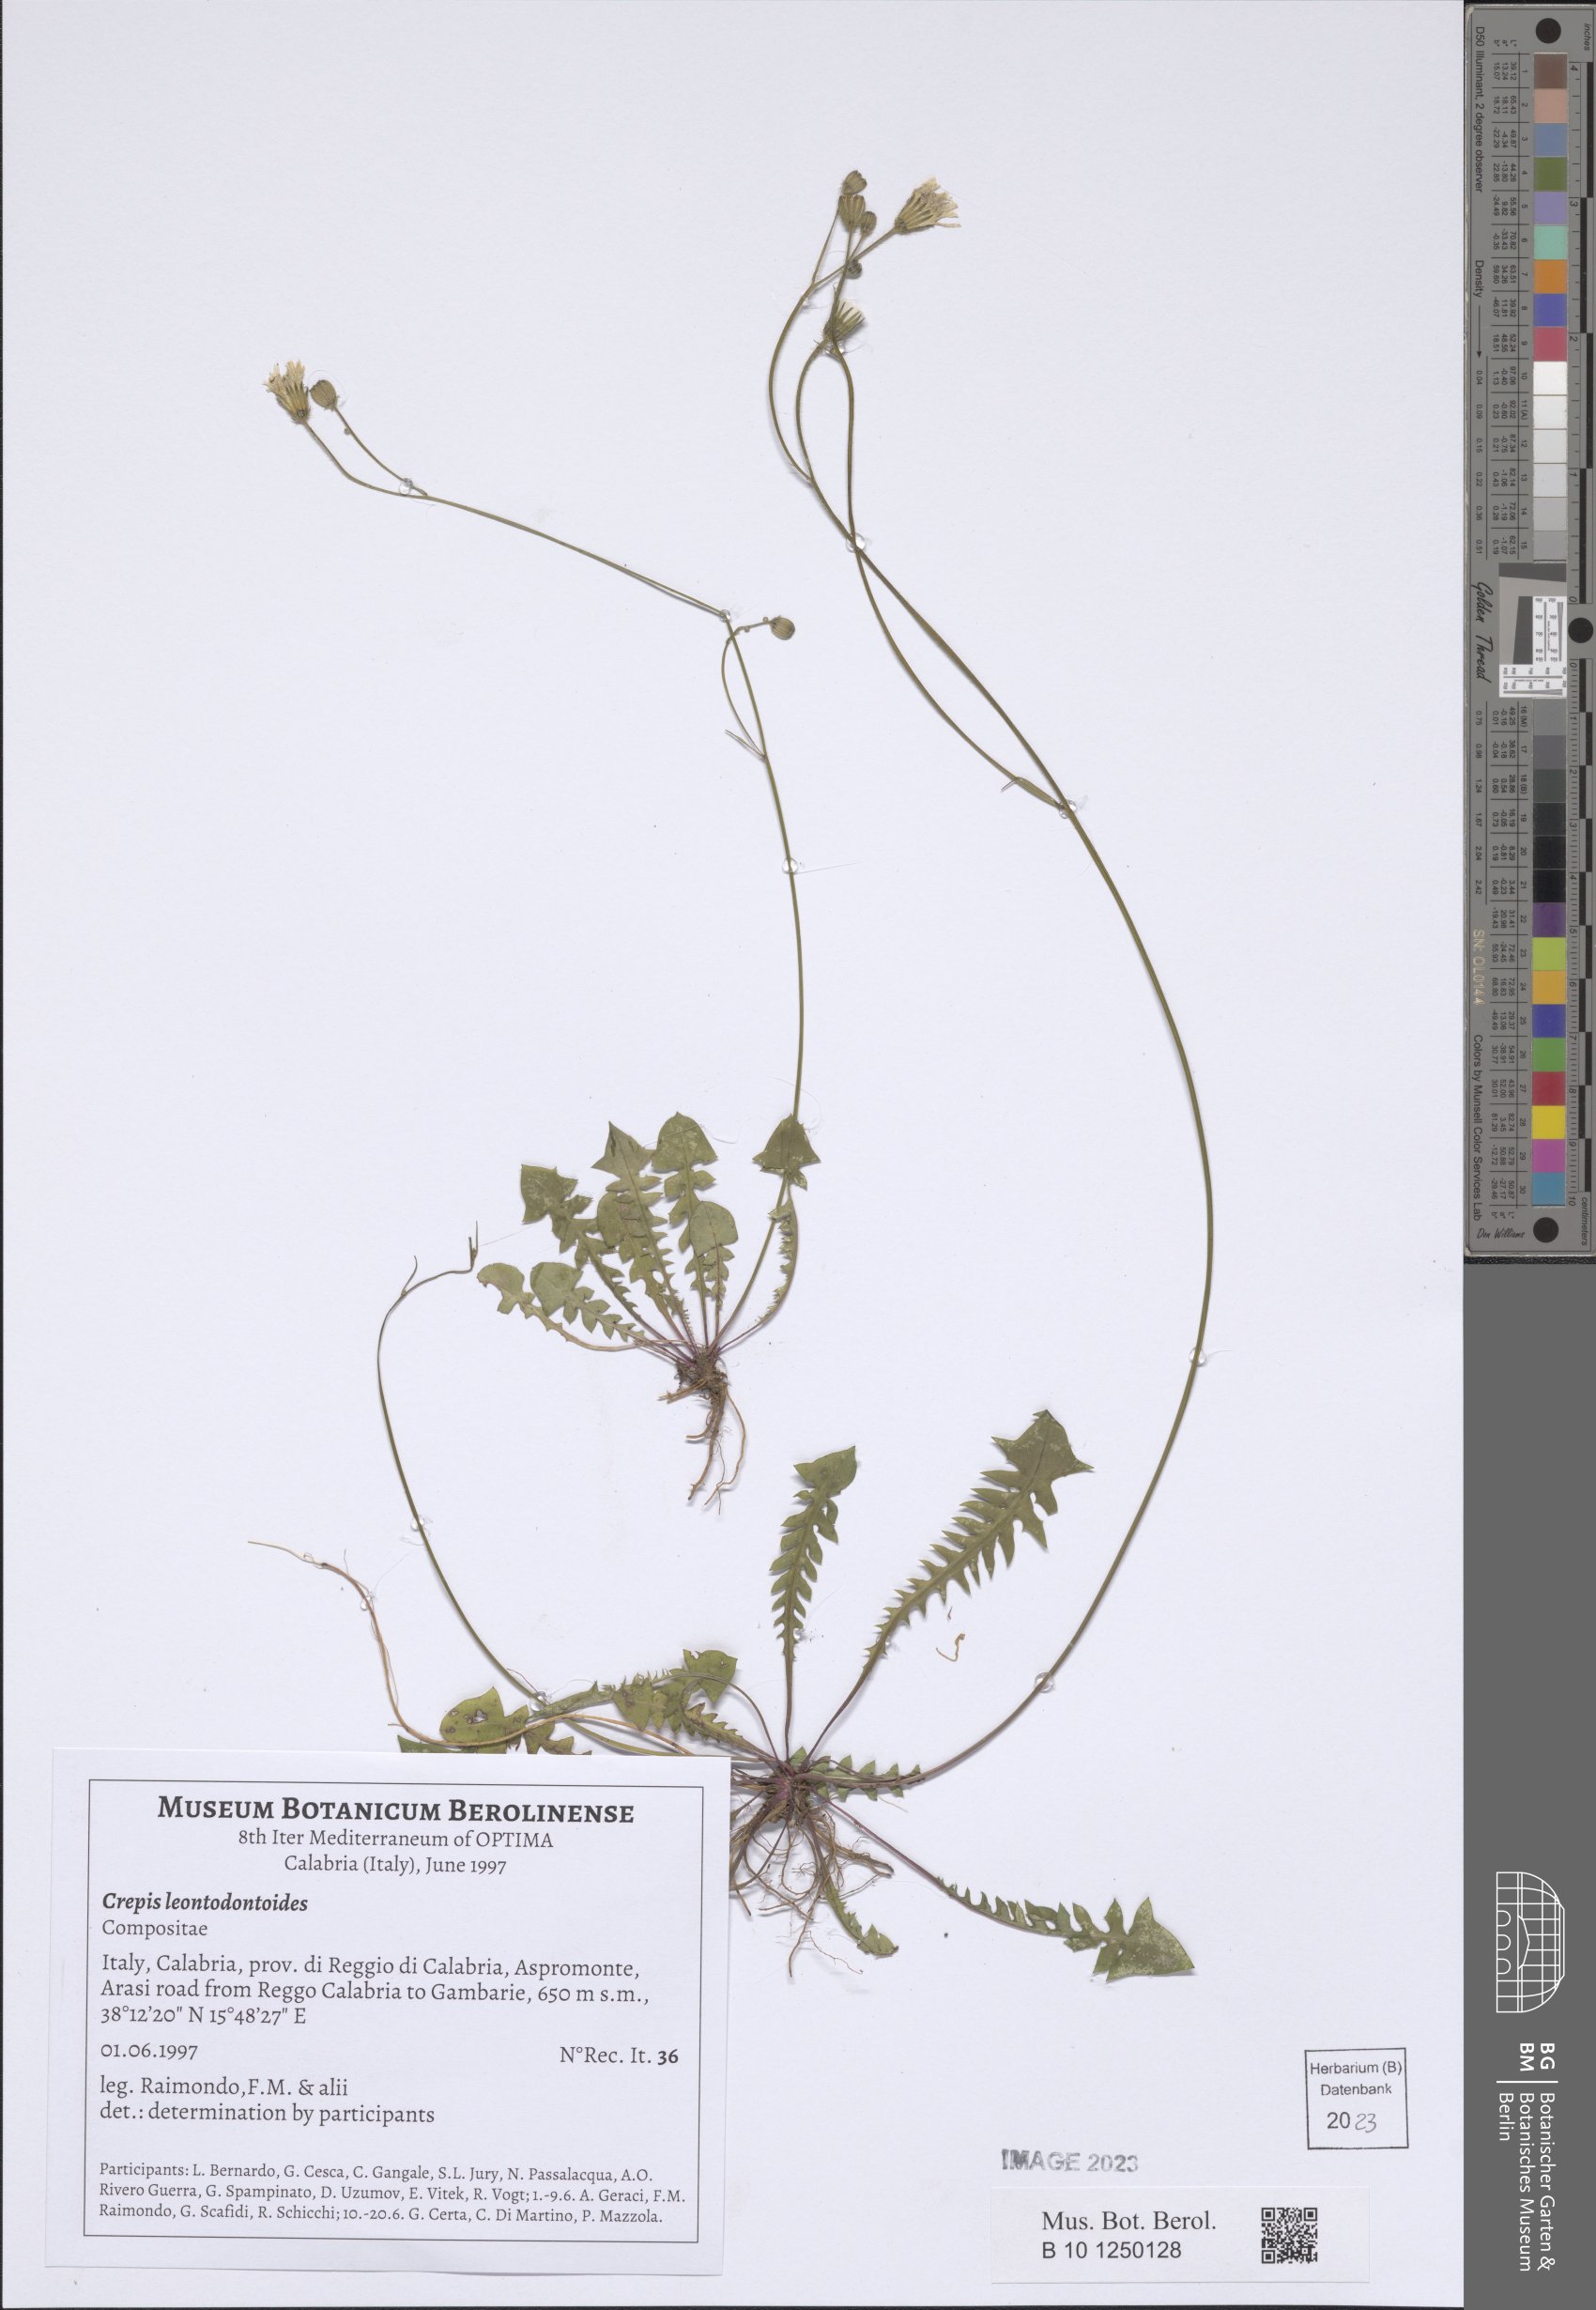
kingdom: Plantae
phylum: Tracheophyta
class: Magnoliopsida
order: Asterales
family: Asteraceae
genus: Crepis
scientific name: Crepis leontodontoides
